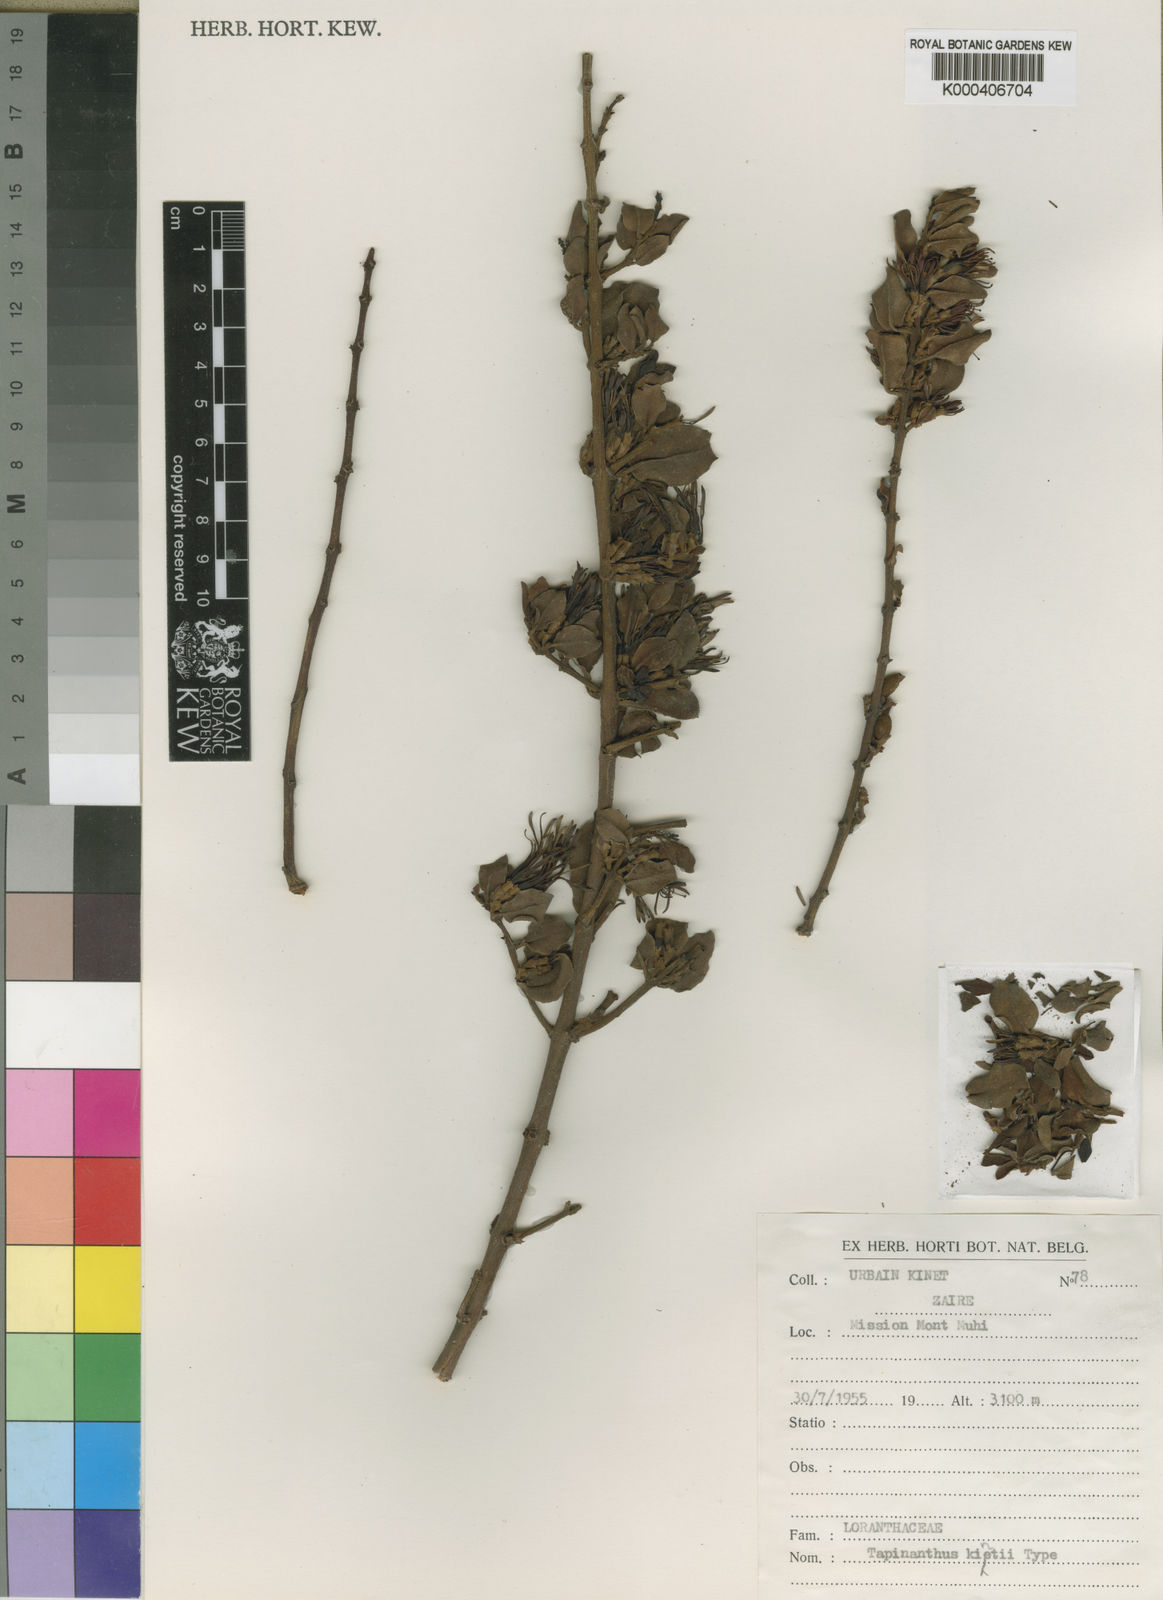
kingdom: Plantae
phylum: Tracheophyta
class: Magnoliopsida
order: Santalales
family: Loranthaceae
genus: Agelanthus
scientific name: Agelanthus myrsinifolius
